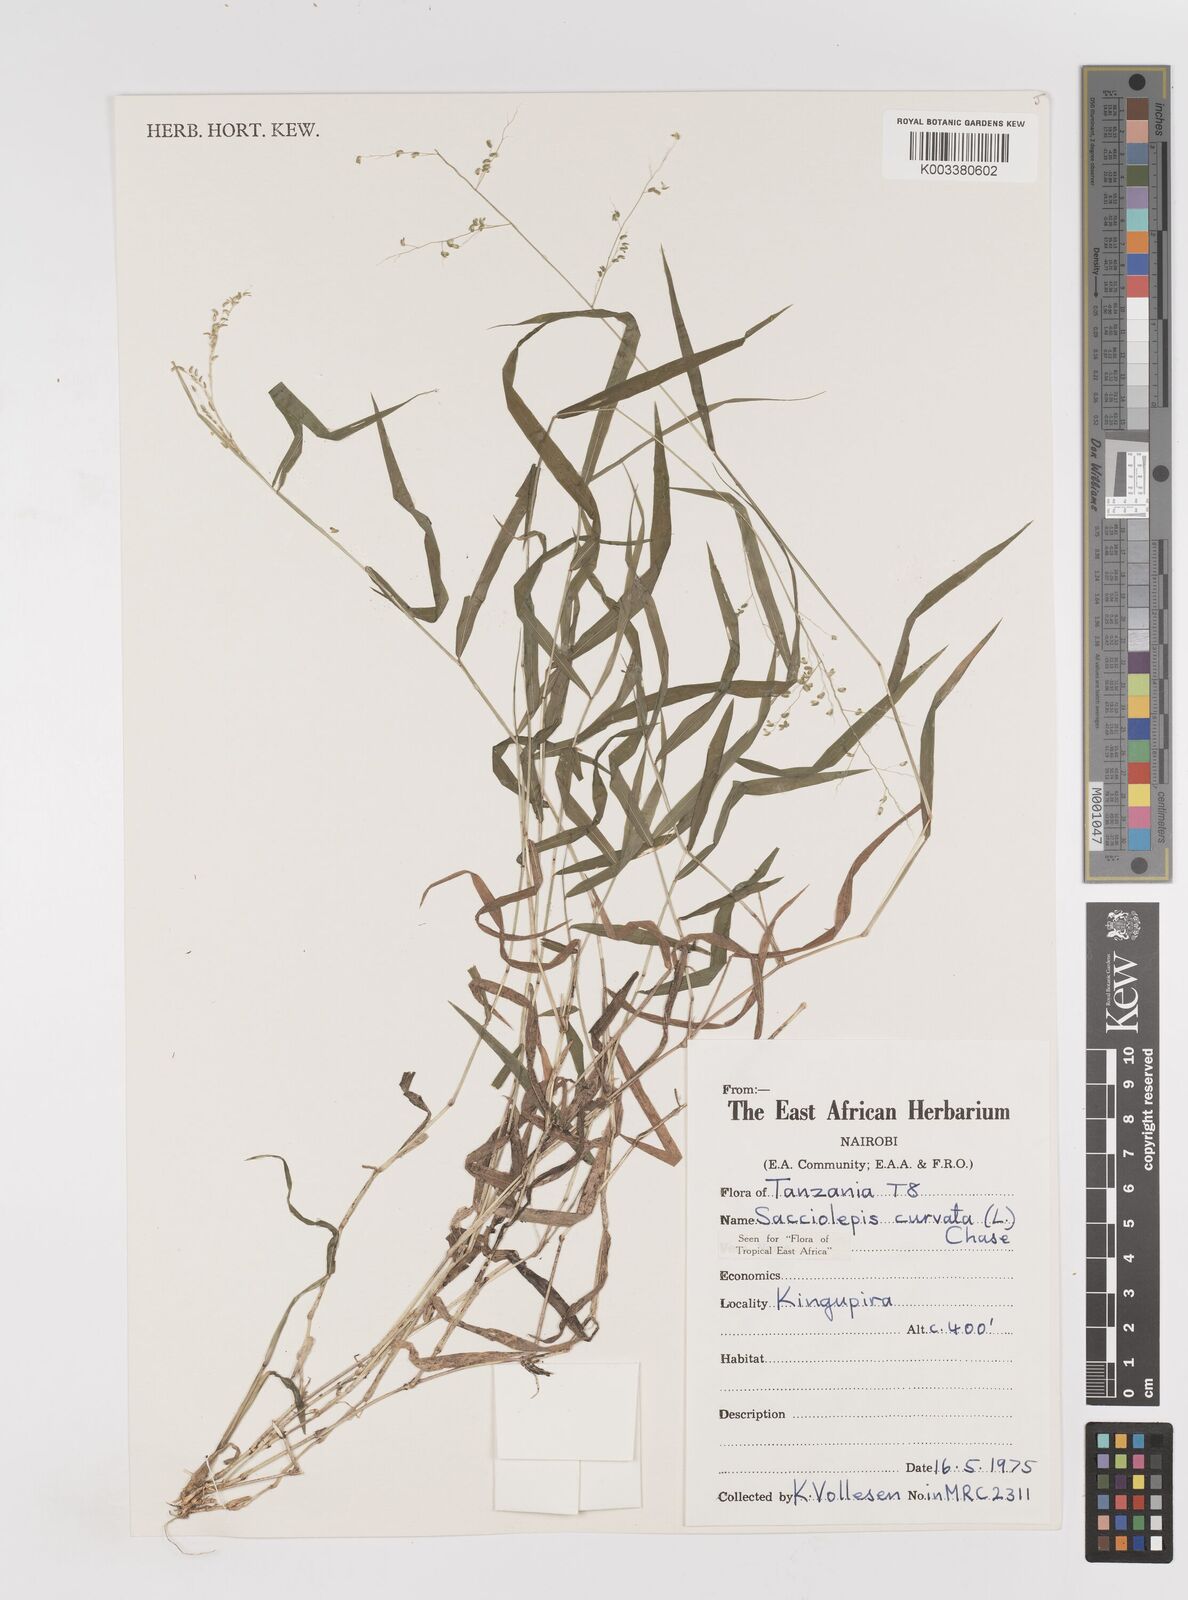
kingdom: Plantae
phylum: Tracheophyta
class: Liliopsida
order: Poales
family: Poaceae
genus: Sacciolepis
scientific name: Sacciolepis curvata
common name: Forest hood grass
